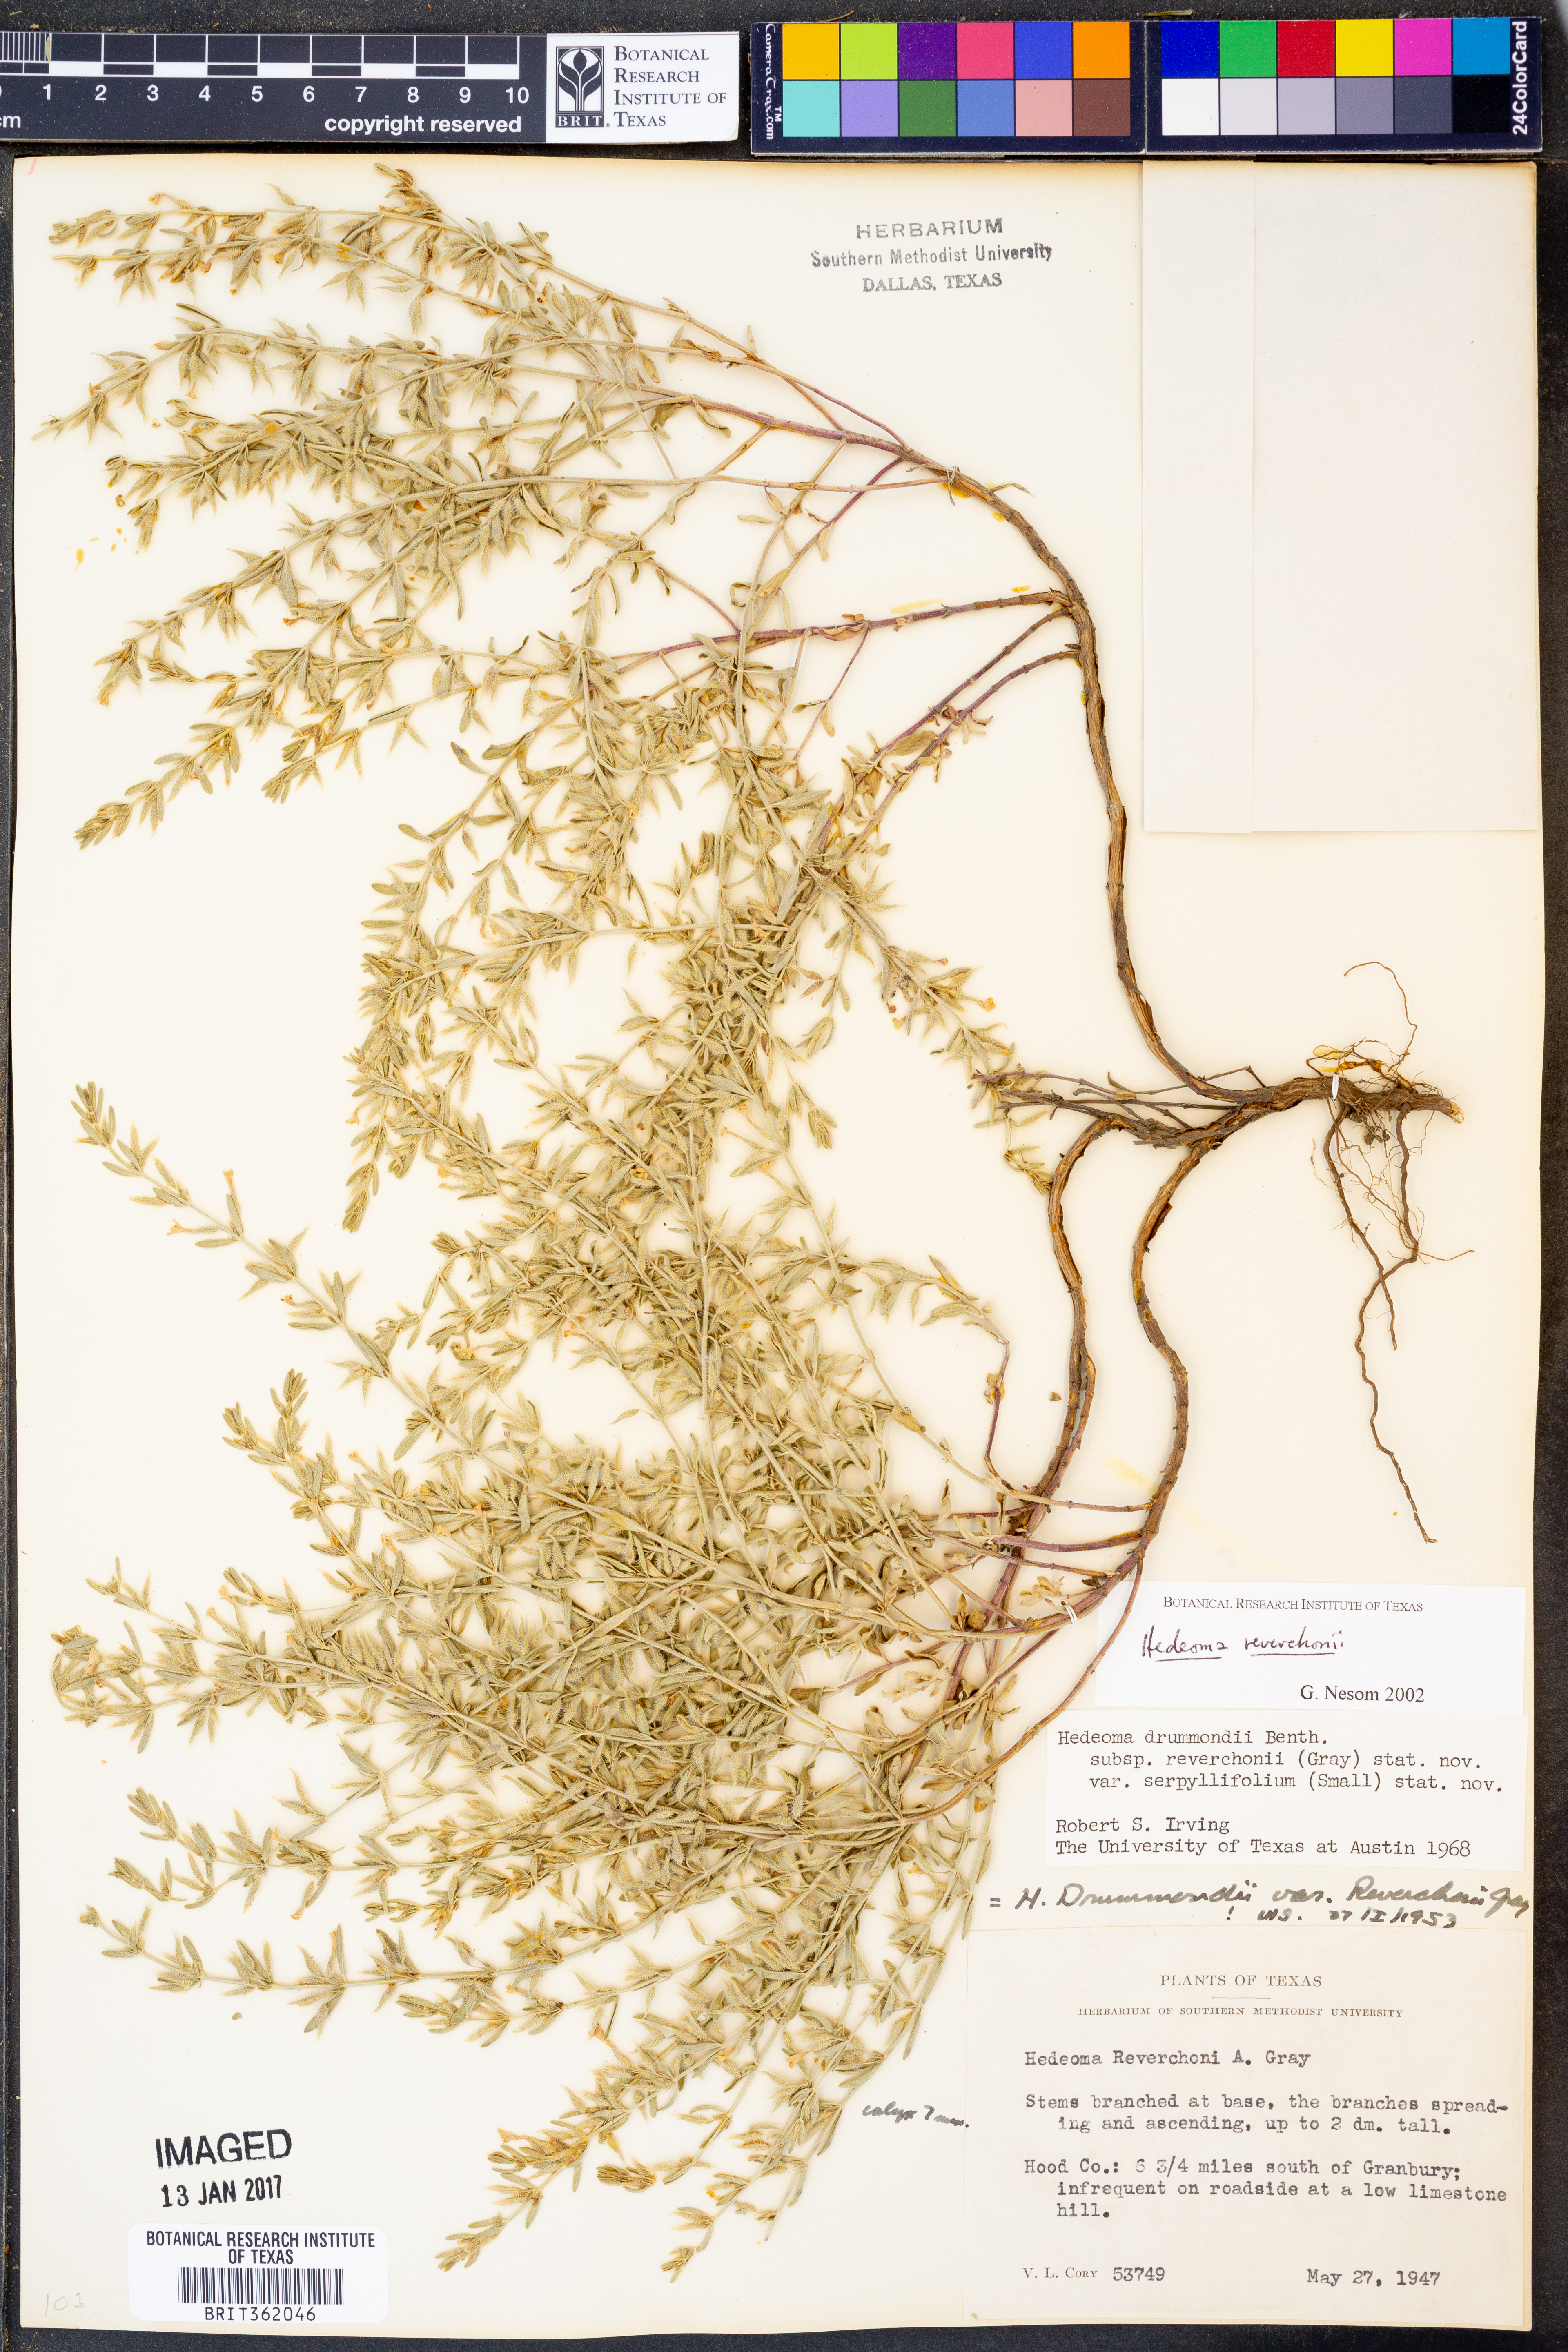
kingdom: Plantae
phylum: Tracheophyta
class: Magnoliopsida
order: Lamiales
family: Lamiaceae
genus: Hedeoma
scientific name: Hedeoma reverchonii
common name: Reverchon's false penny-royal
